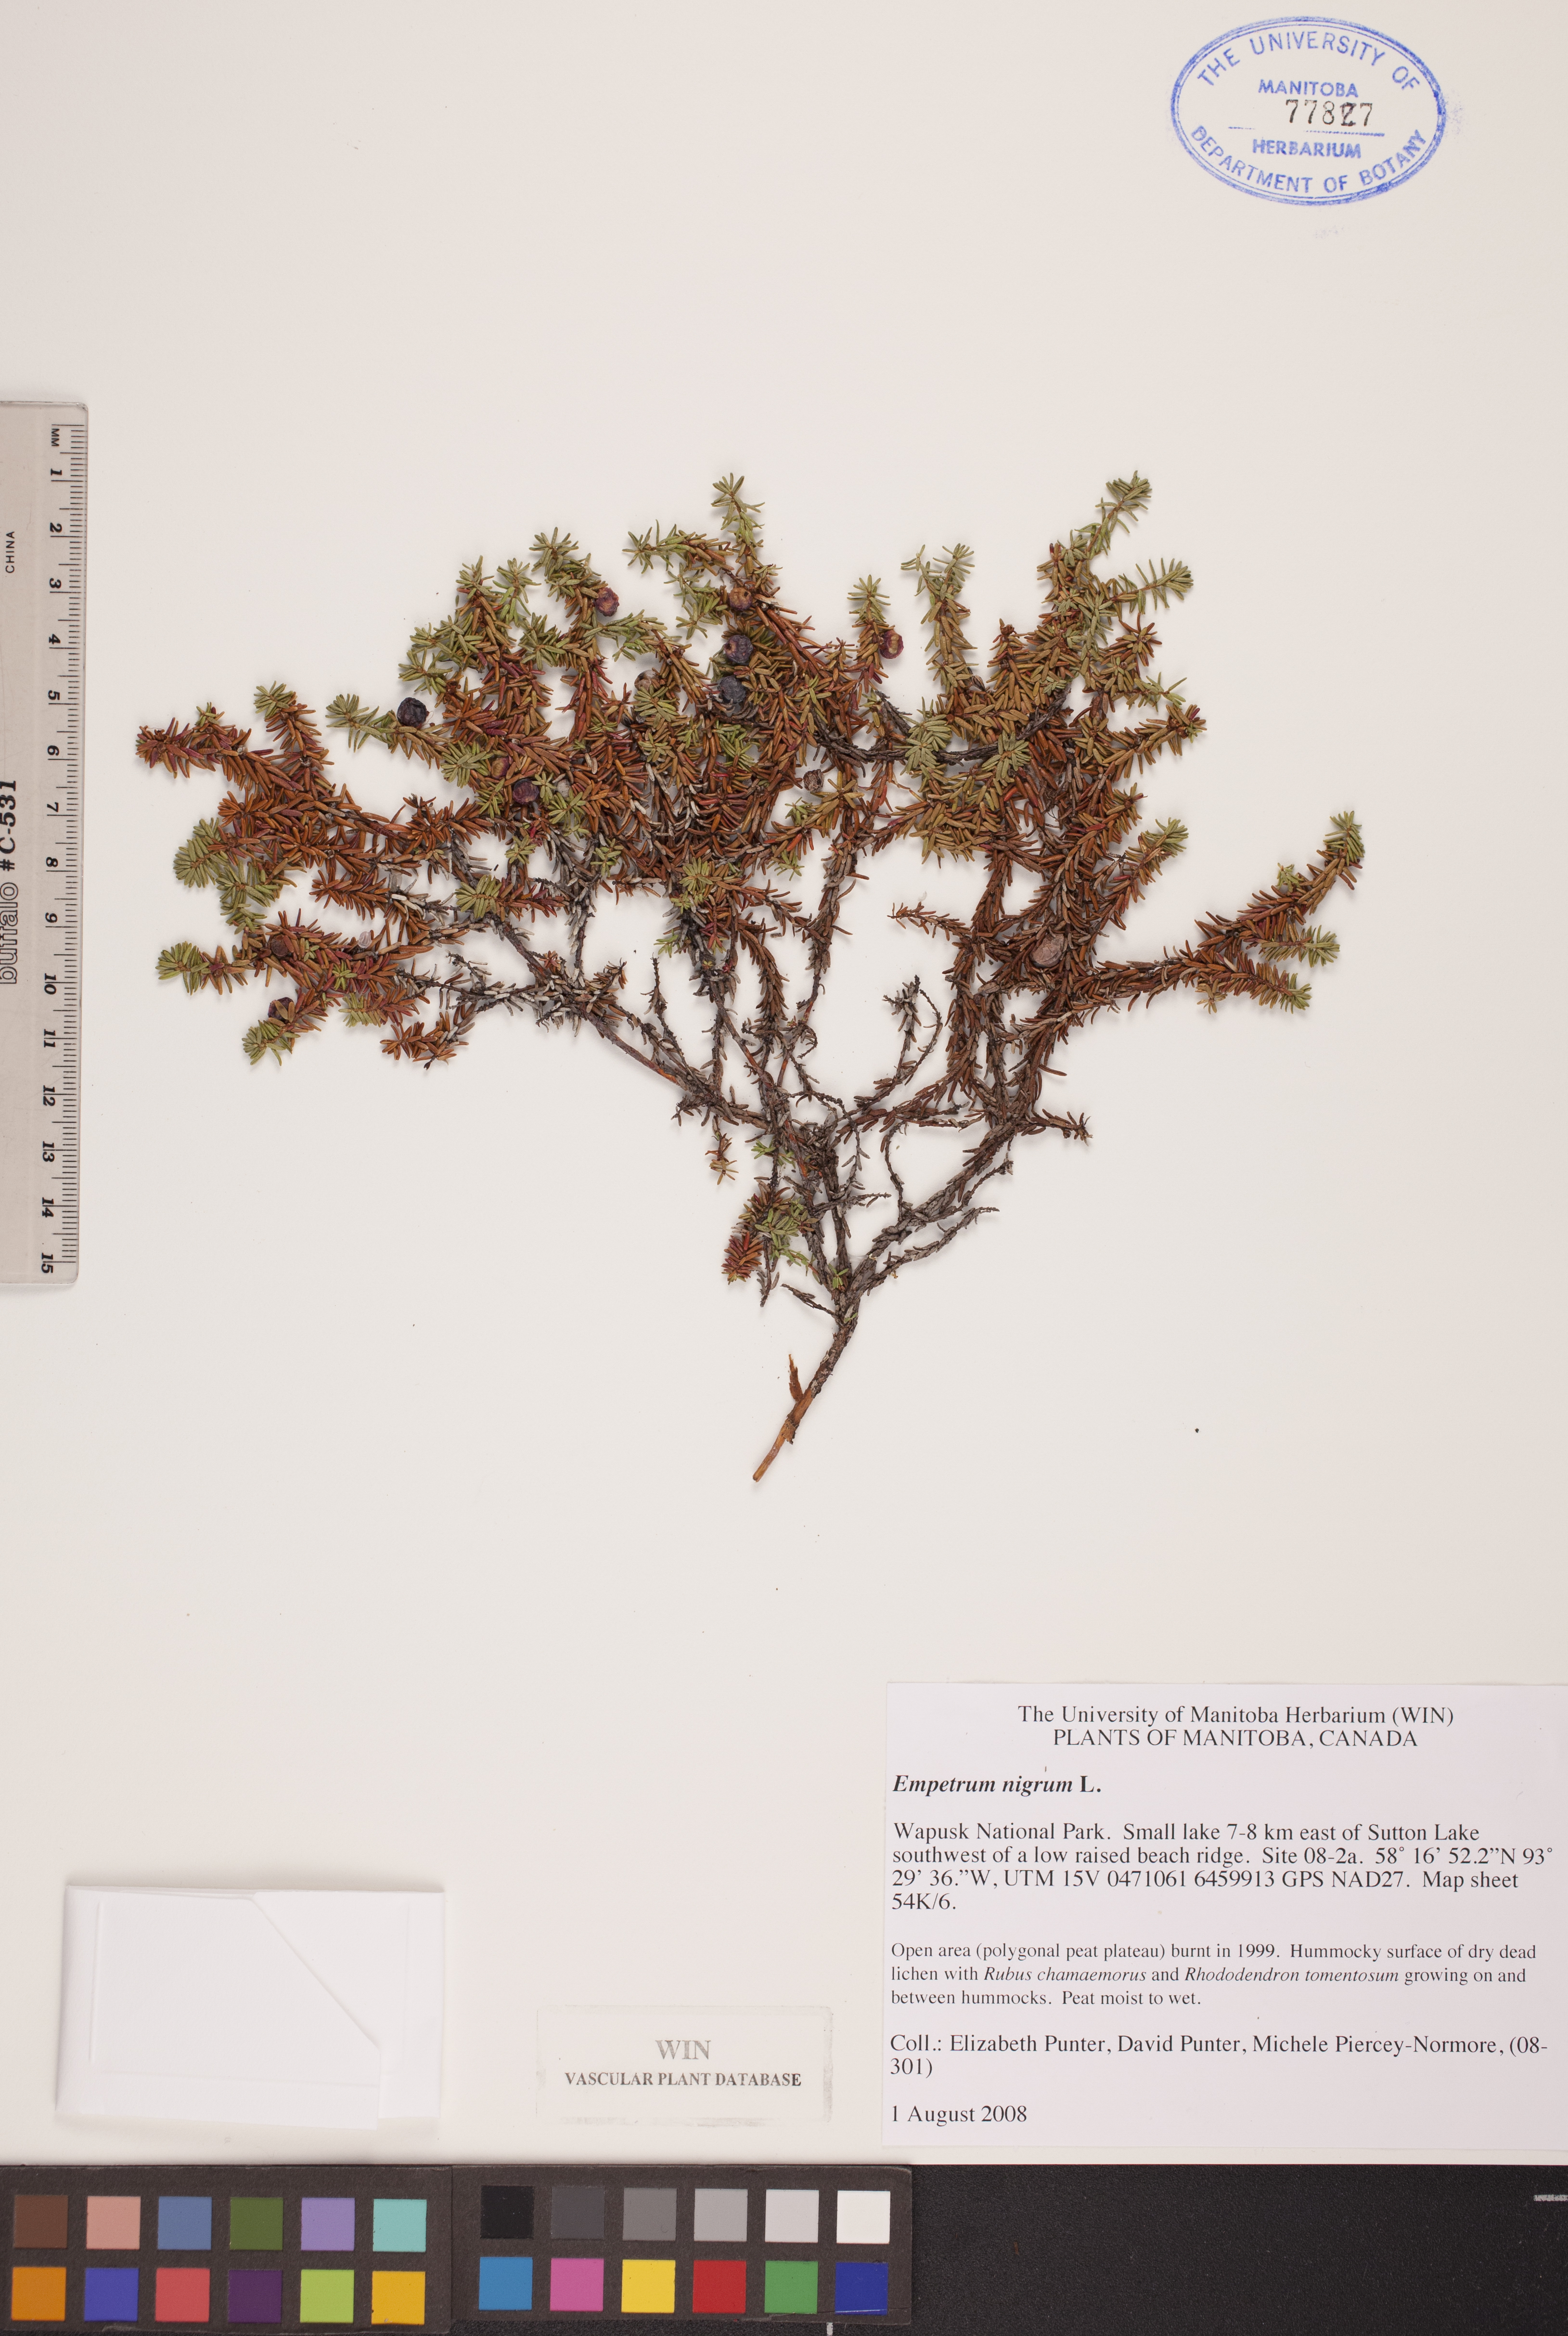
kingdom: Plantae
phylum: Tracheophyta
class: Magnoliopsida
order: Ericales
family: Ericaceae
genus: Empetrum
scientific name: Empetrum nigrum
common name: Black crowberry
